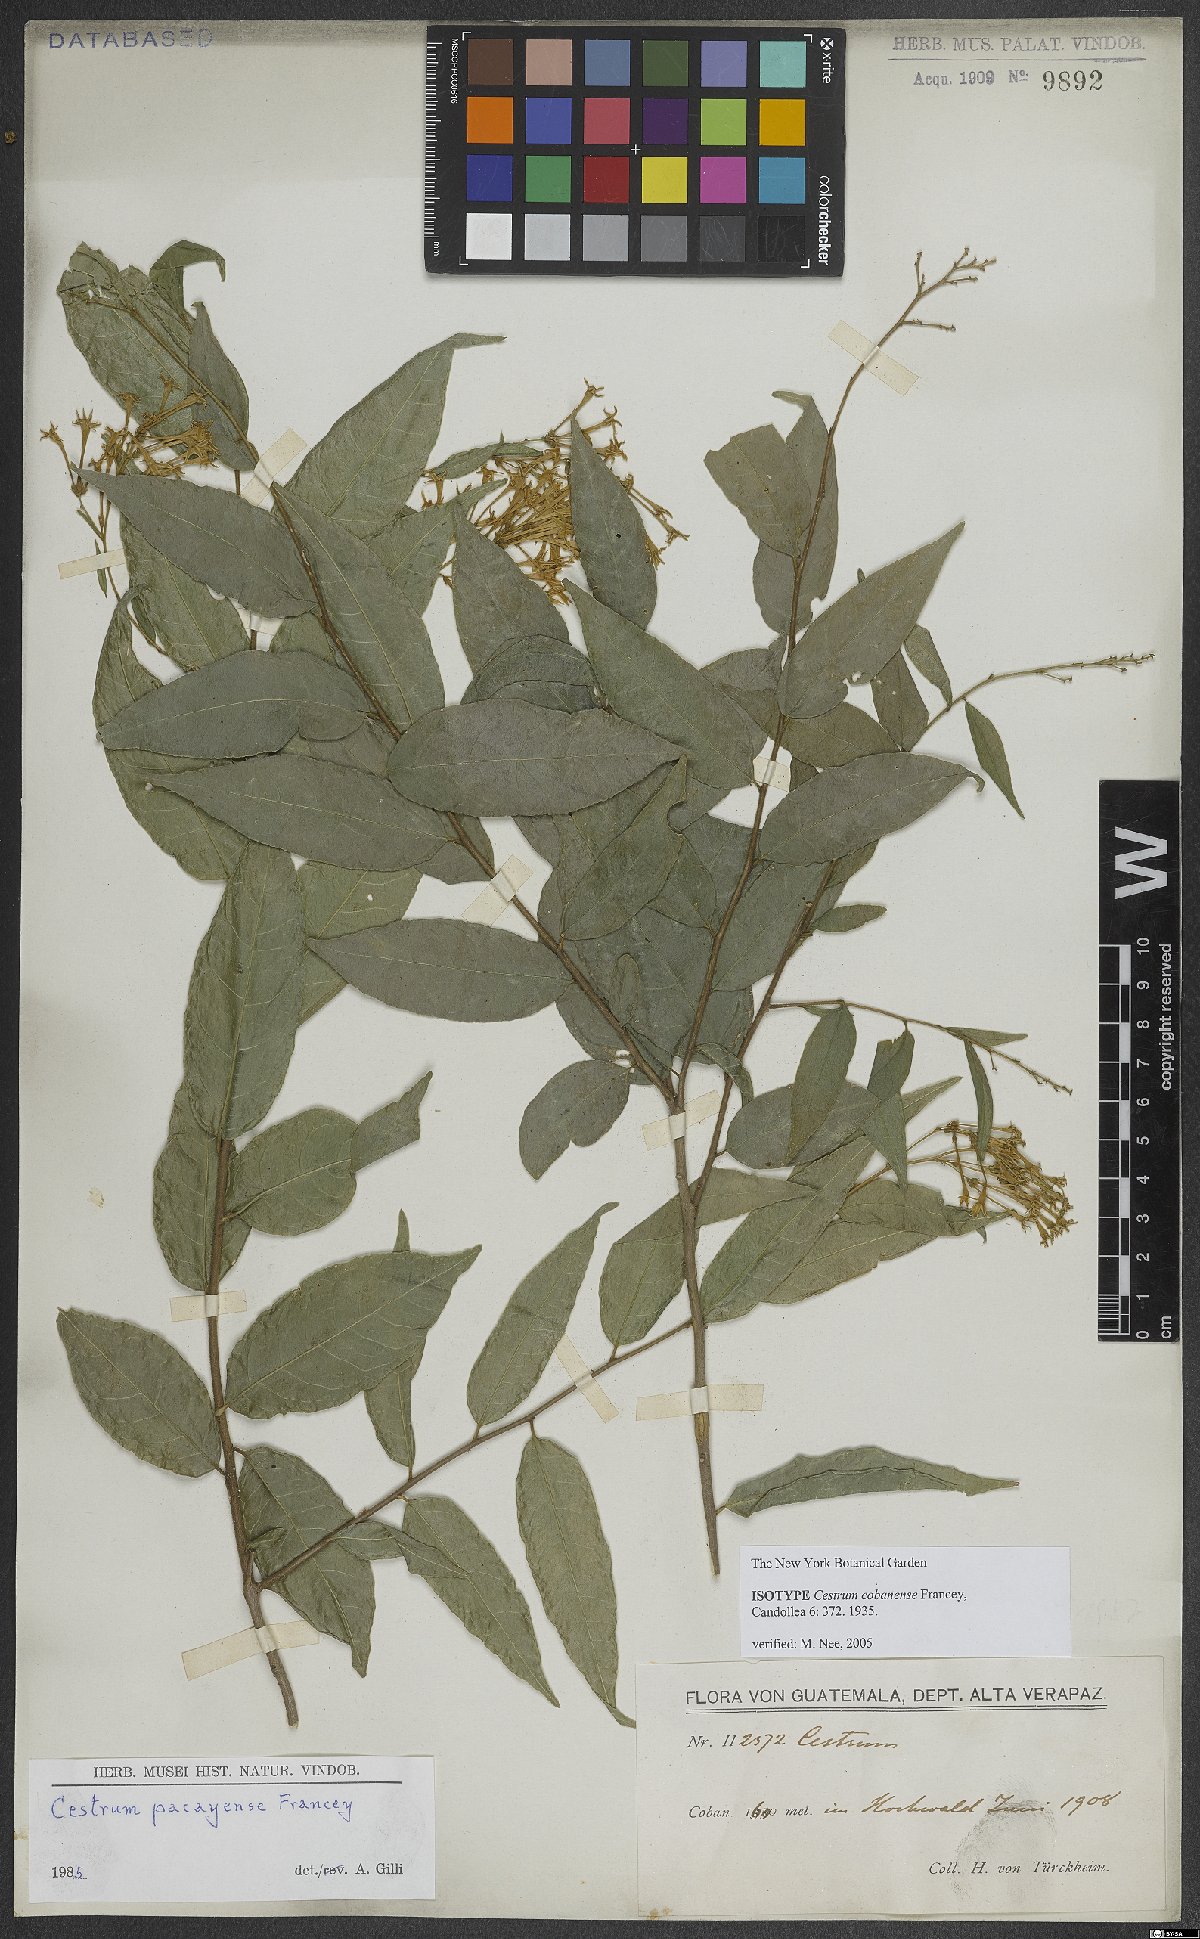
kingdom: Plantae
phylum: Tracheophyta
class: Magnoliopsida
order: Solanales
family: Solanaceae
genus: Cestrum
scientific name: Cestrum cobanense
